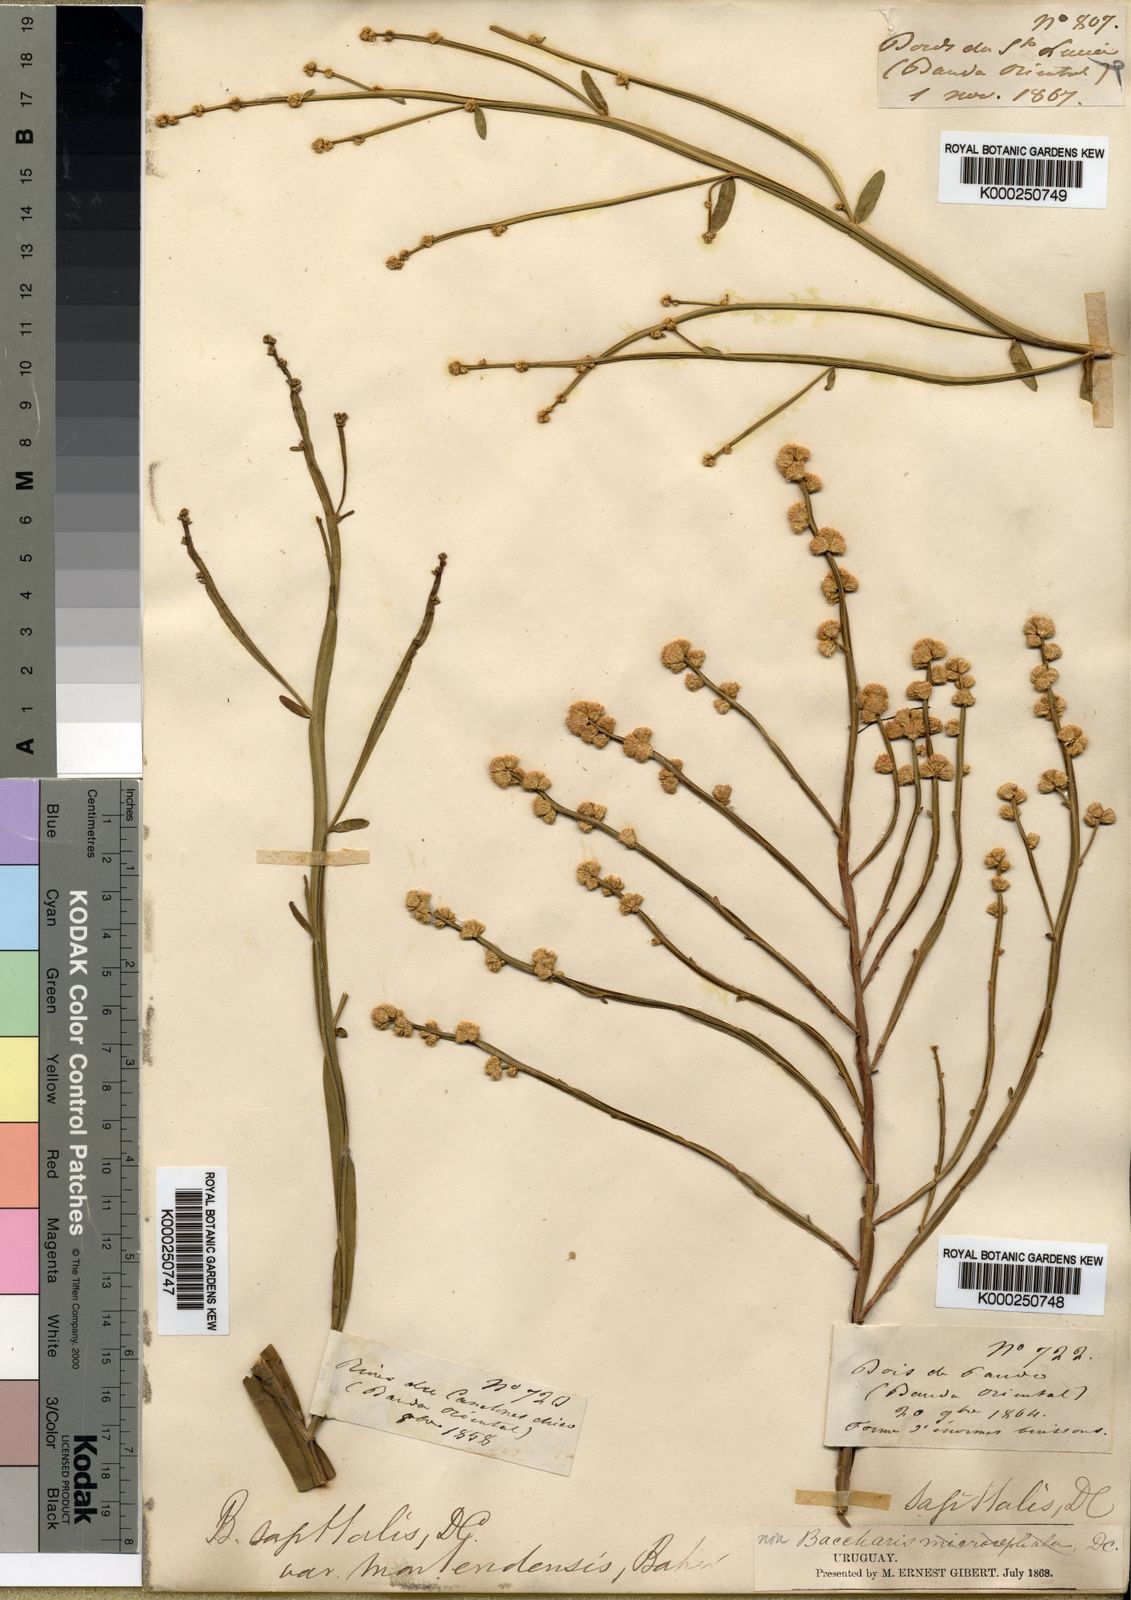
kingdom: Plantae
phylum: Tracheophyta
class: Magnoliopsida
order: Asterales
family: Asteraceae
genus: Baccharis
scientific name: Baccharis subtropicalis
